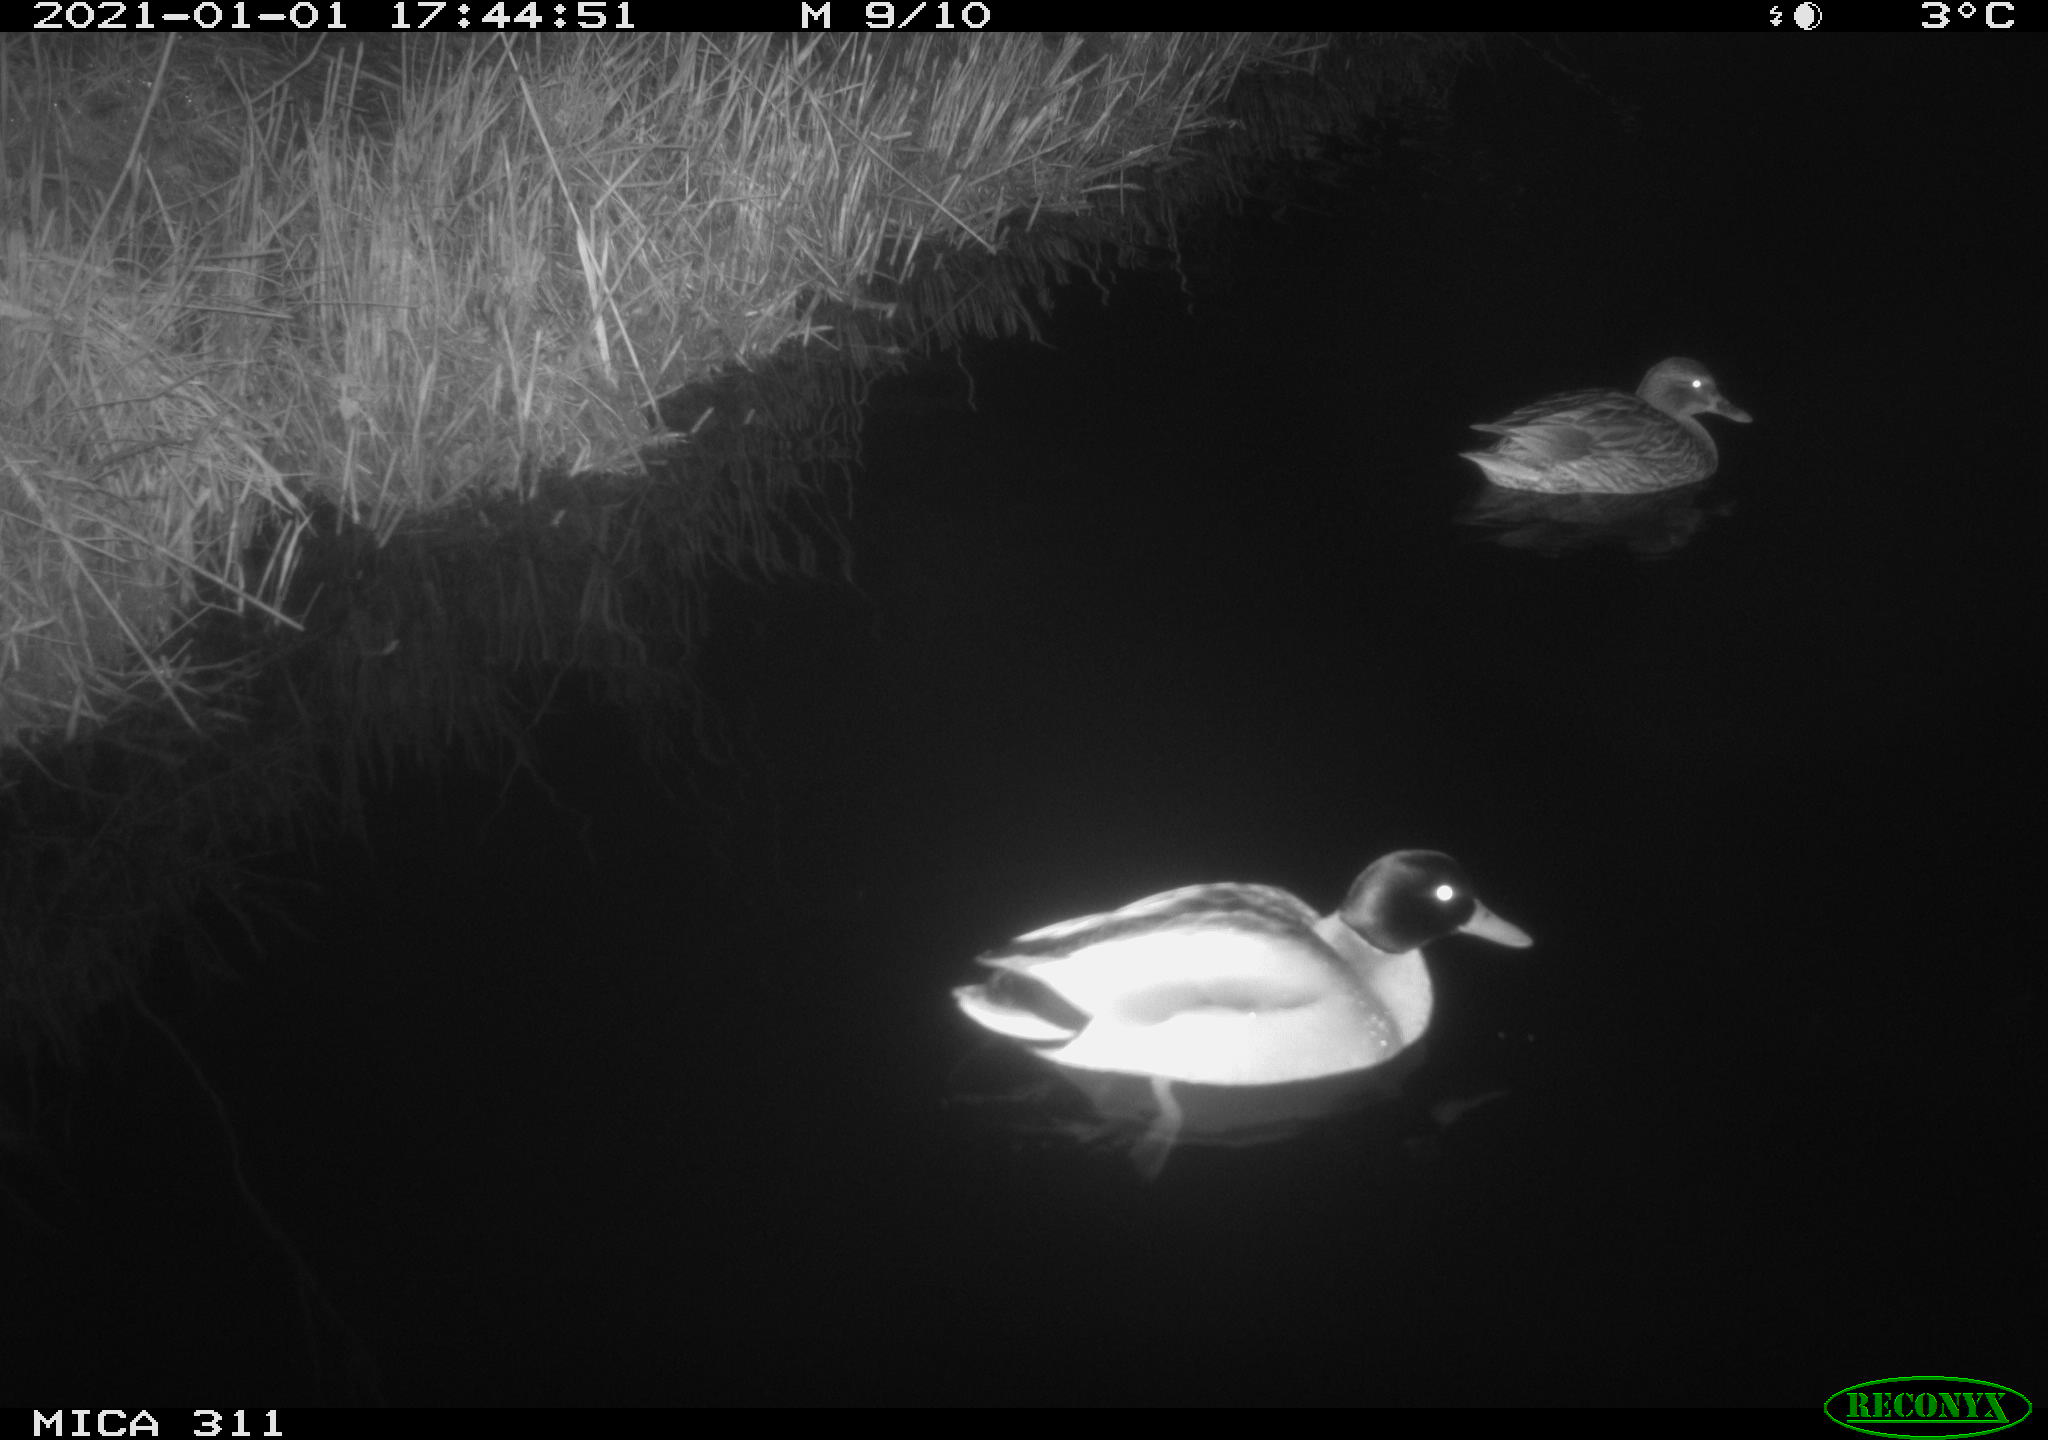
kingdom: Animalia
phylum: Chordata
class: Aves
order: Anseriformes
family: Anatidae
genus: Anas
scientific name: Anas platyrhynchos
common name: Mallard
